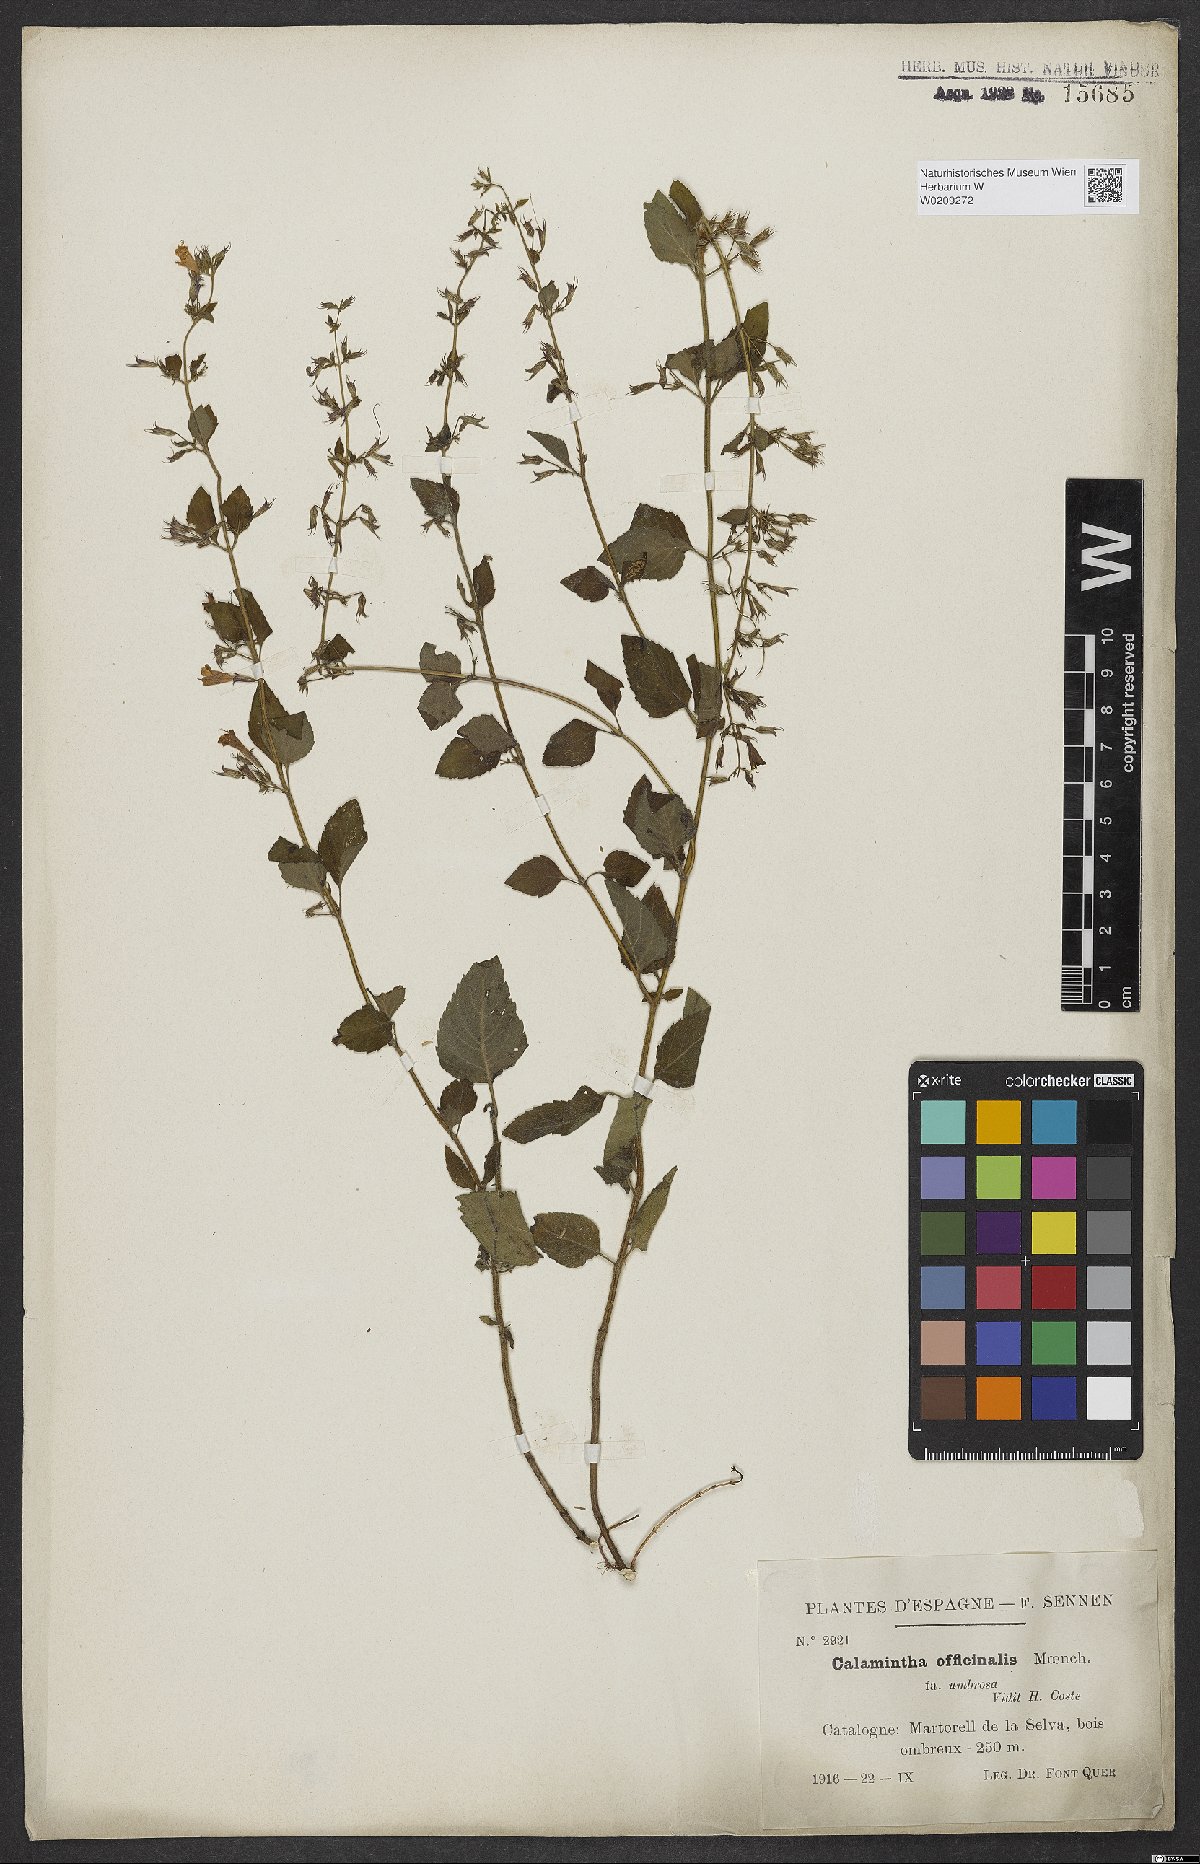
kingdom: Plantae
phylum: Tracheophyta
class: Magnoliopsida
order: Lamiales
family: Lamiaceae
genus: Clinopodium
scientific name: Clinopodium nepeta
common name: Lesser calamint
